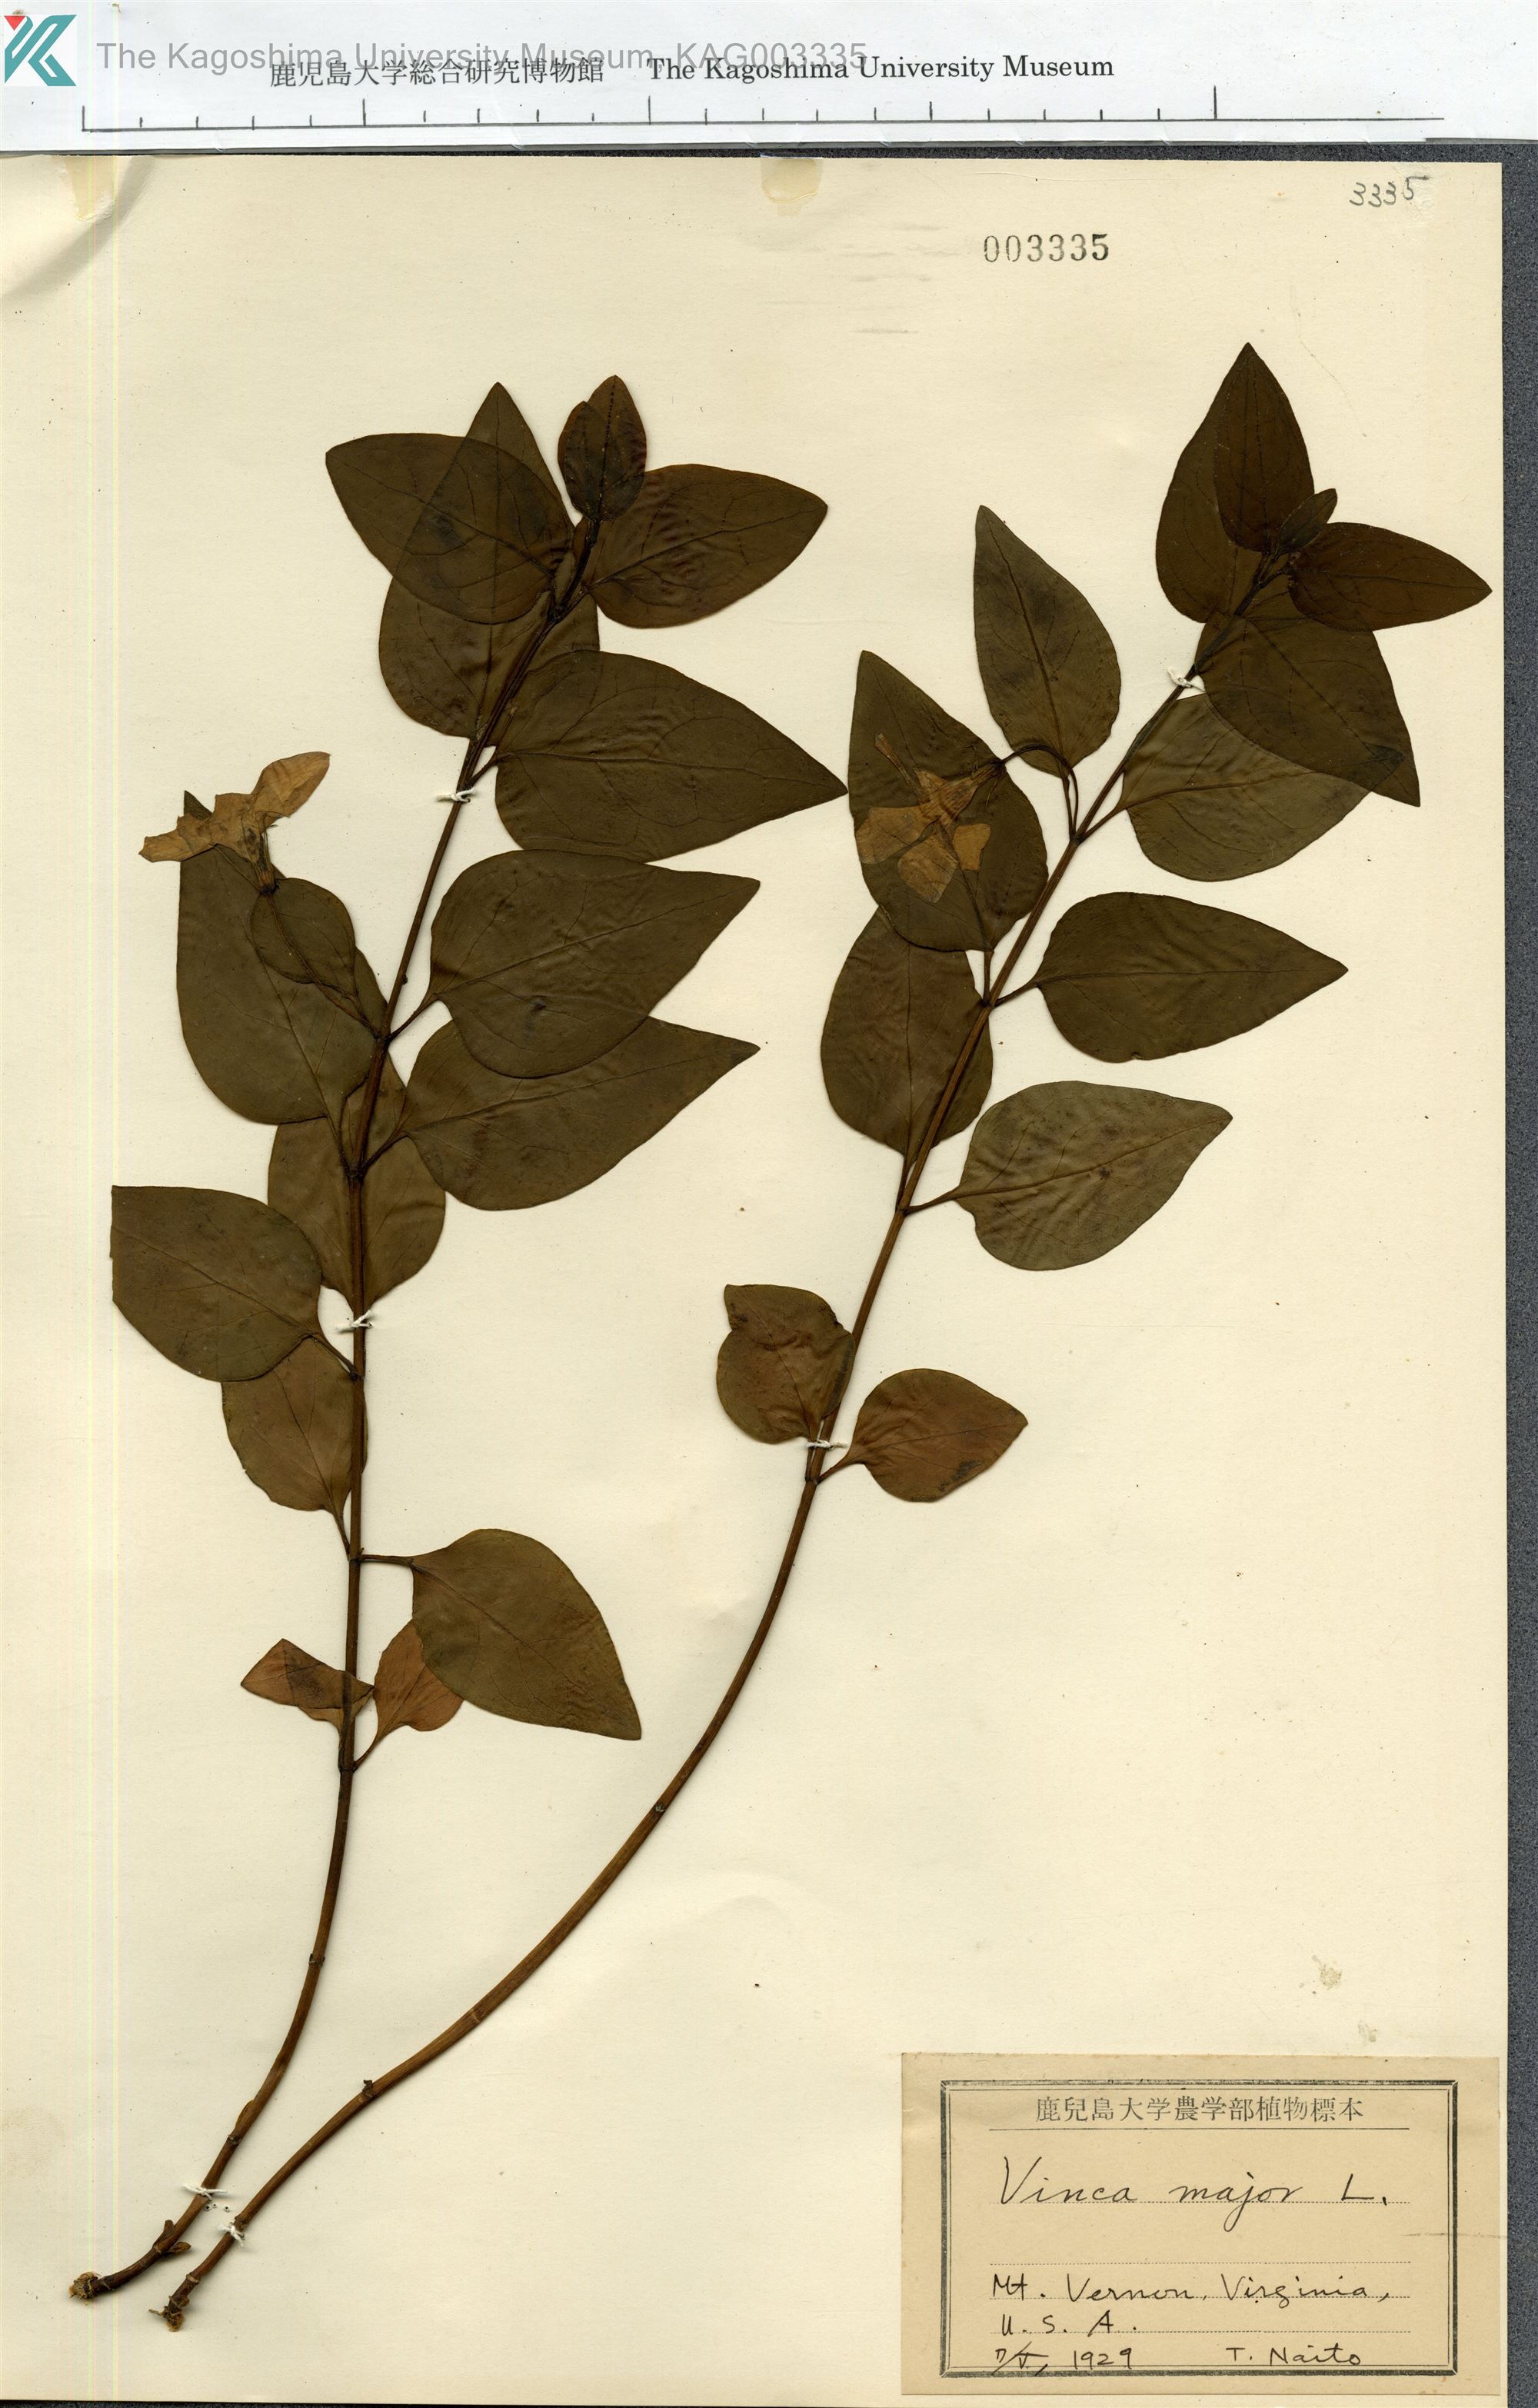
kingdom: Plantae
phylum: Tracheophyta
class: Magnoliopsida
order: Gentianales
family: Apocynaceae
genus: Vinca
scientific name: Vinca major
